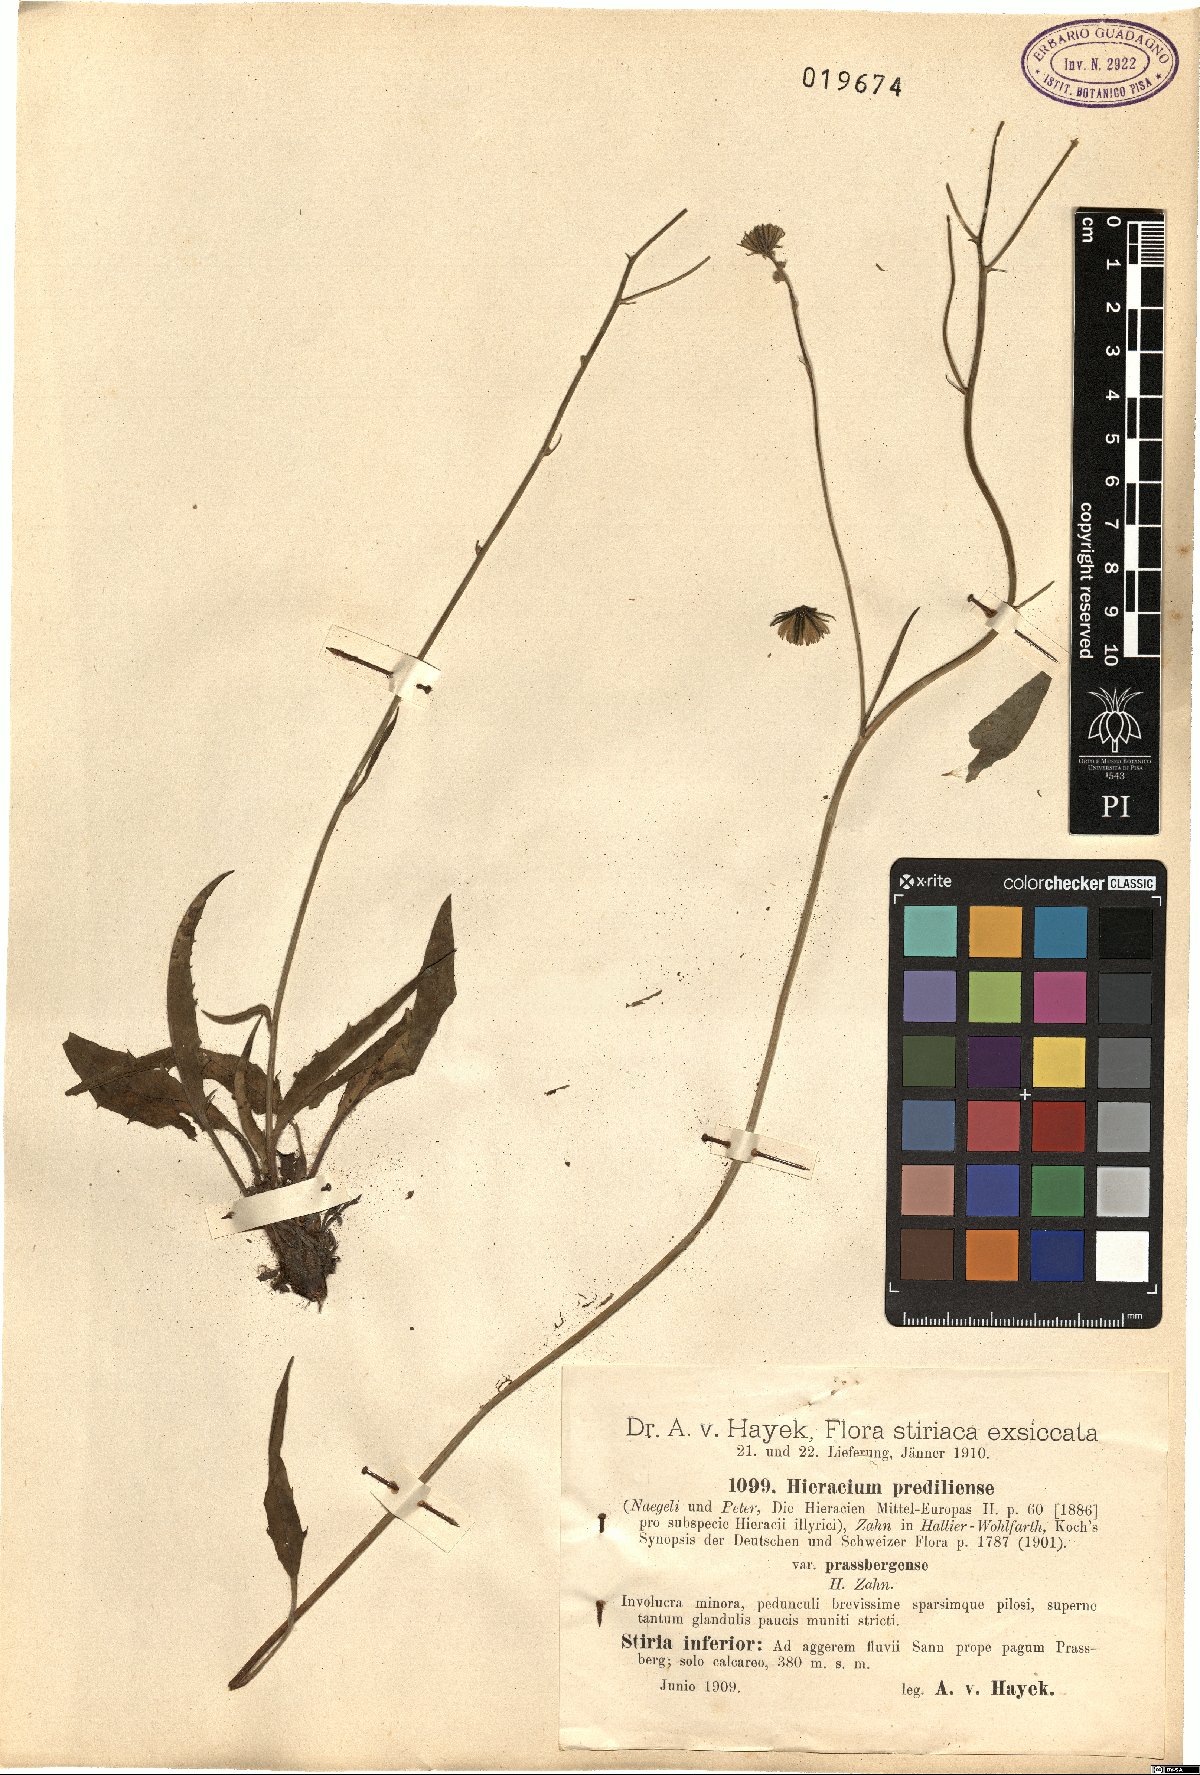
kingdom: Plantae
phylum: Tracheophyta
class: Magnoliopsida
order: Asterales
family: Asteraceae
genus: Hieracium
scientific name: Hieracium prediliense
